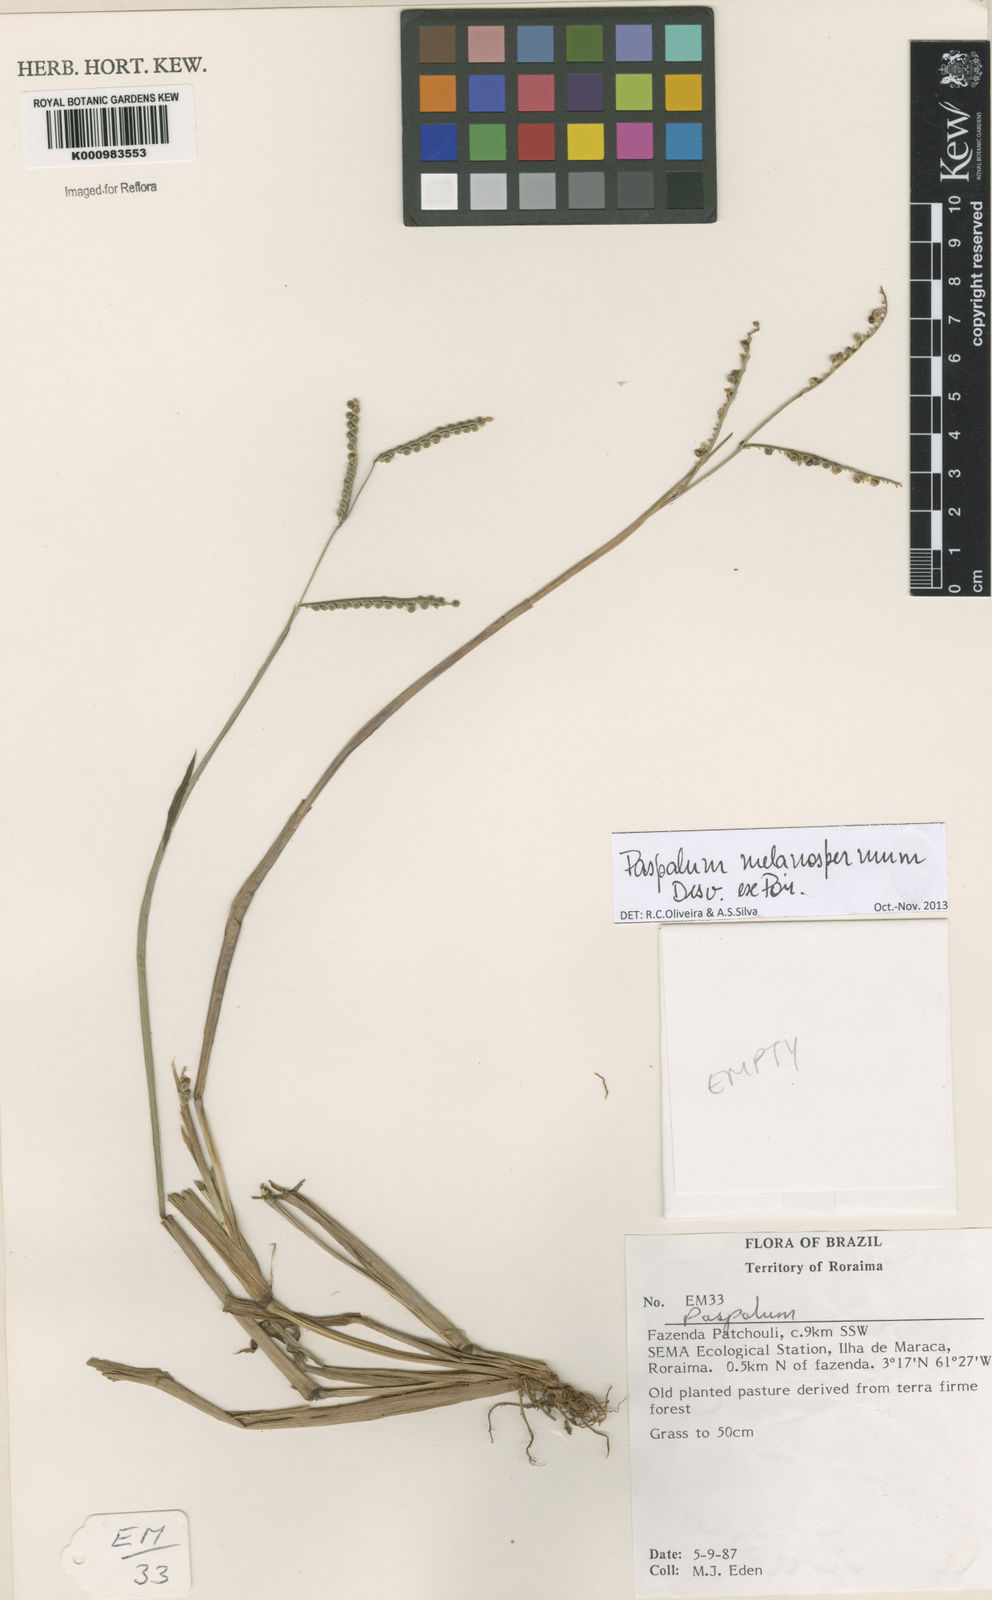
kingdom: Plantae
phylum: Tracheophyta
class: Liliopsida
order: Poales
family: Poaceae
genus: Paspalum
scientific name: Paspalum melanospermum
